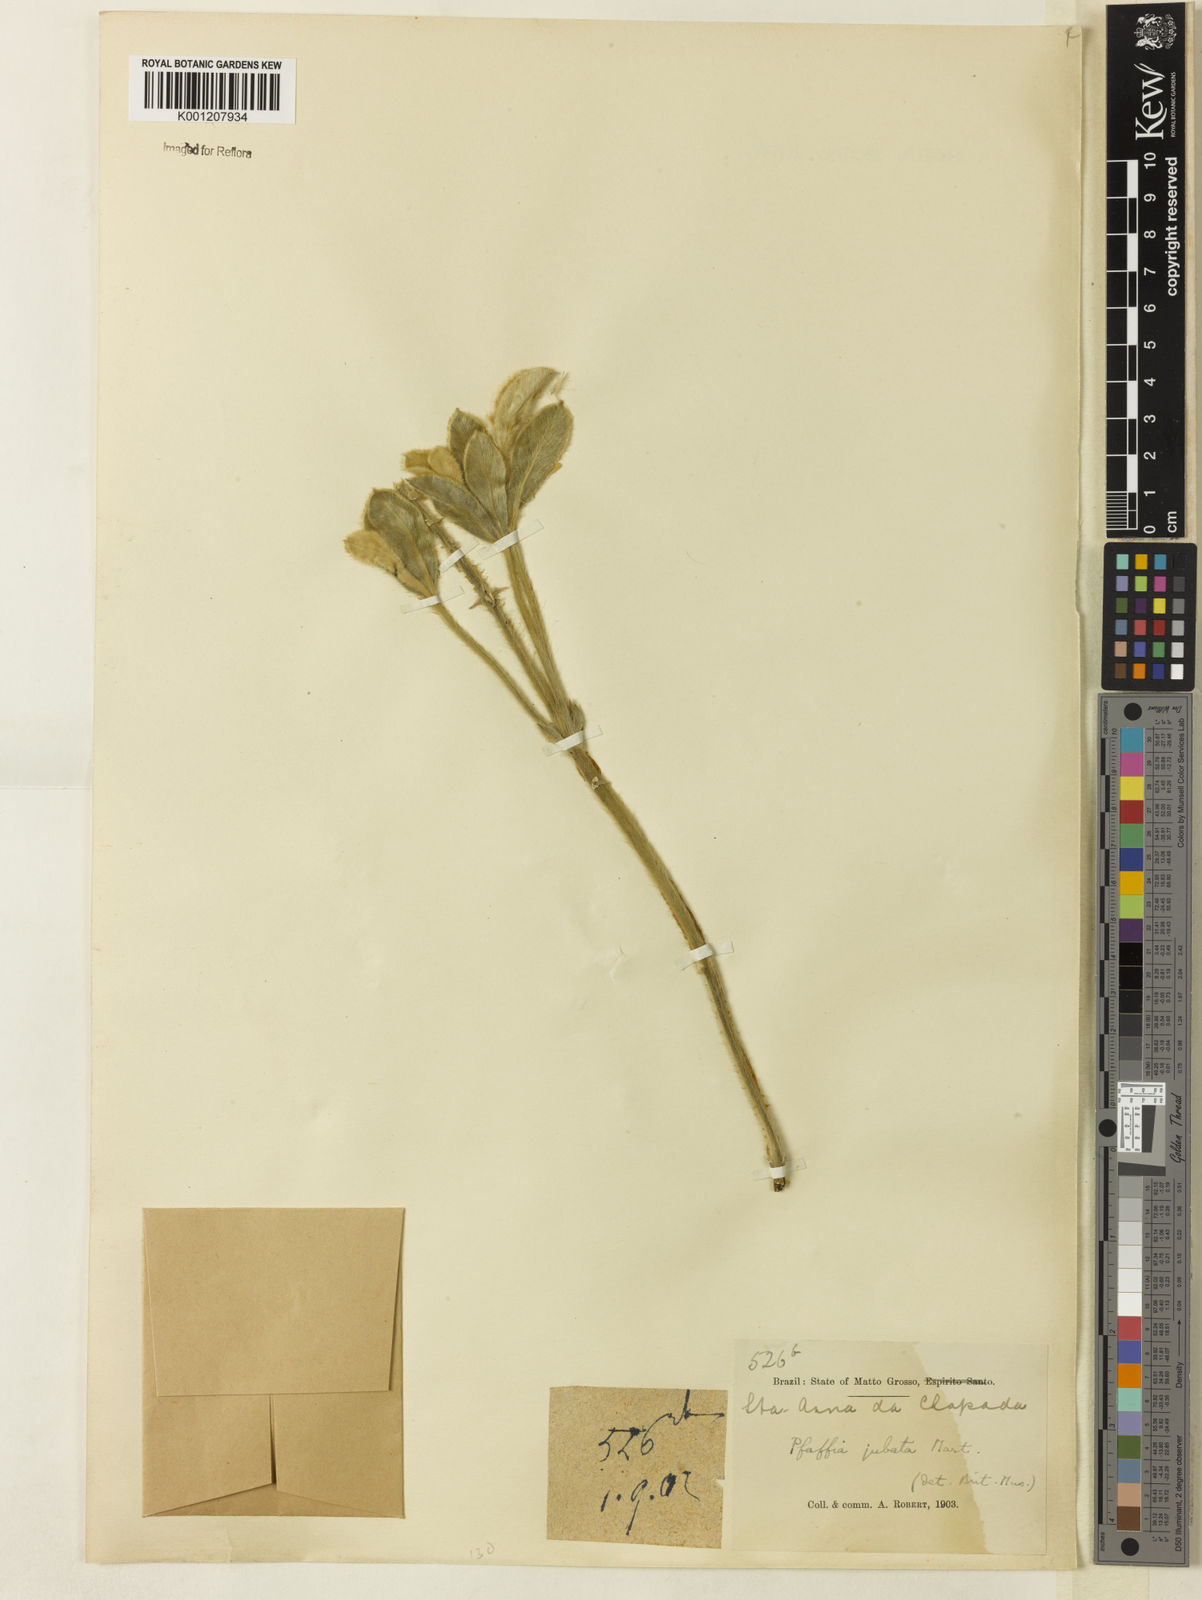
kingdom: Plantae
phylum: Tracheophyta
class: Magnoliopsida
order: Caryophyllales
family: Amaranthaceae
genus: Pfaffia
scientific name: Pfaffia jubata
